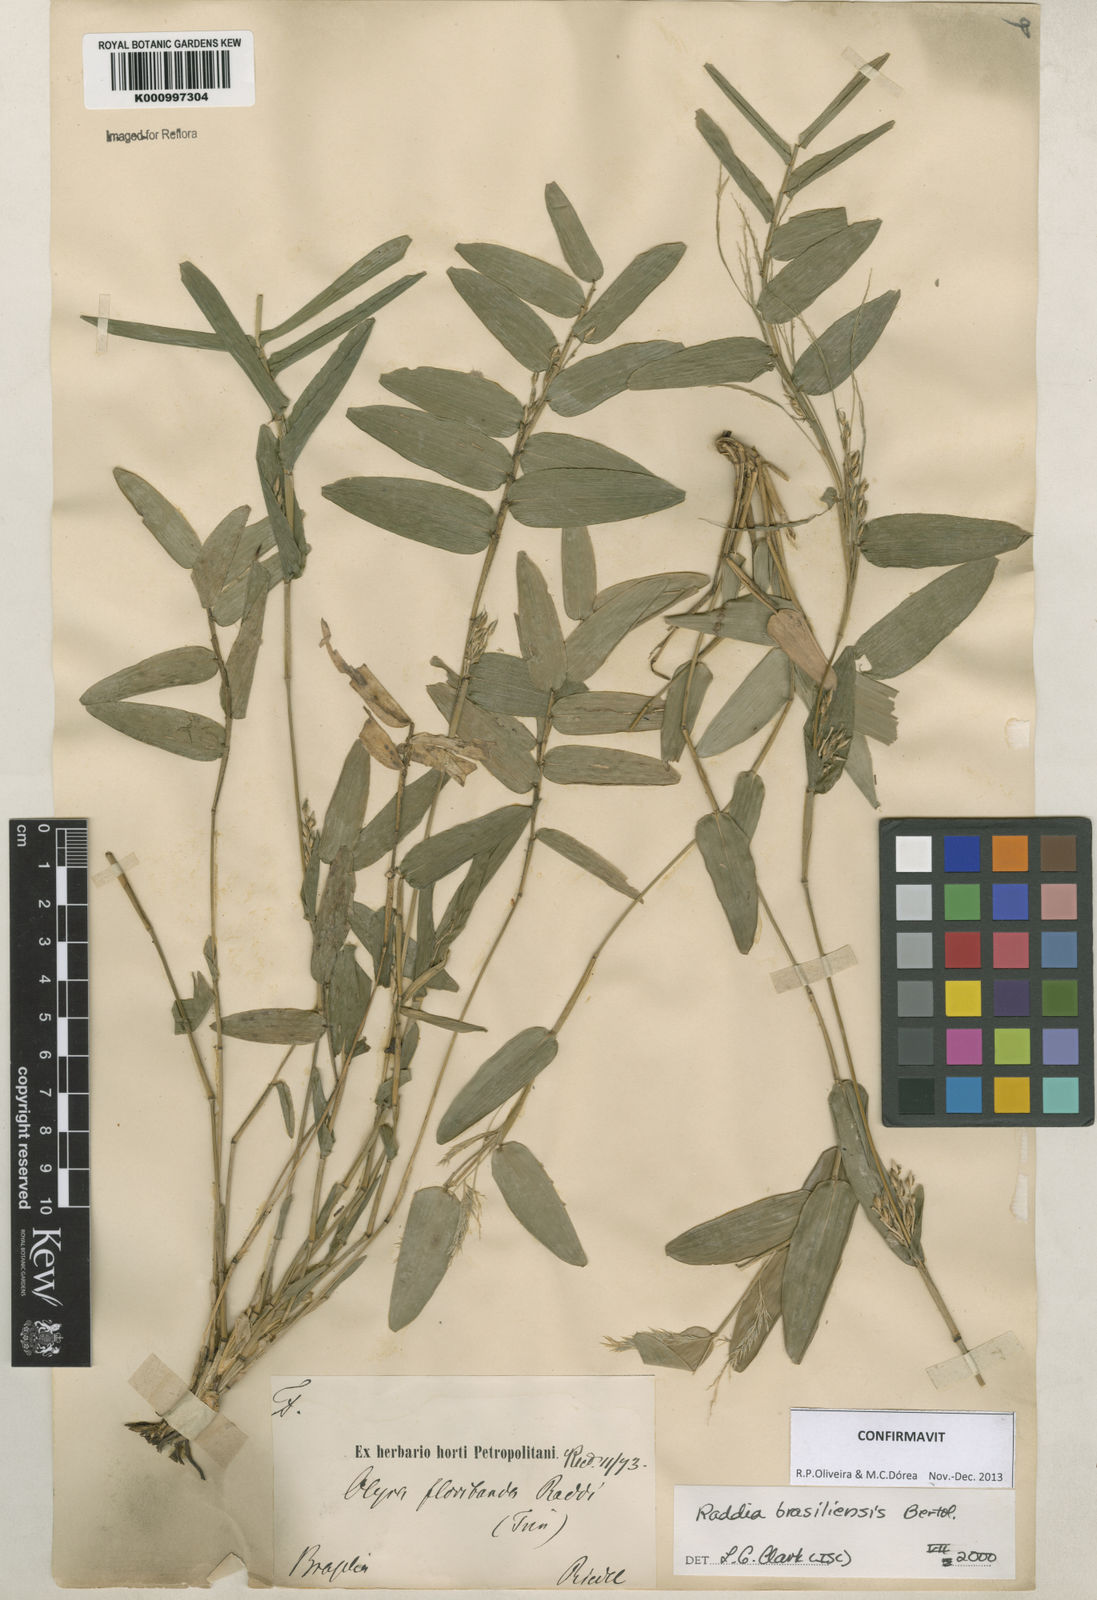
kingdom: Plantae
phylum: Tracheophyta
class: Liliopsida
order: Poales
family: Poaceae
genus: Raddia
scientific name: Raddia brasiliensis
